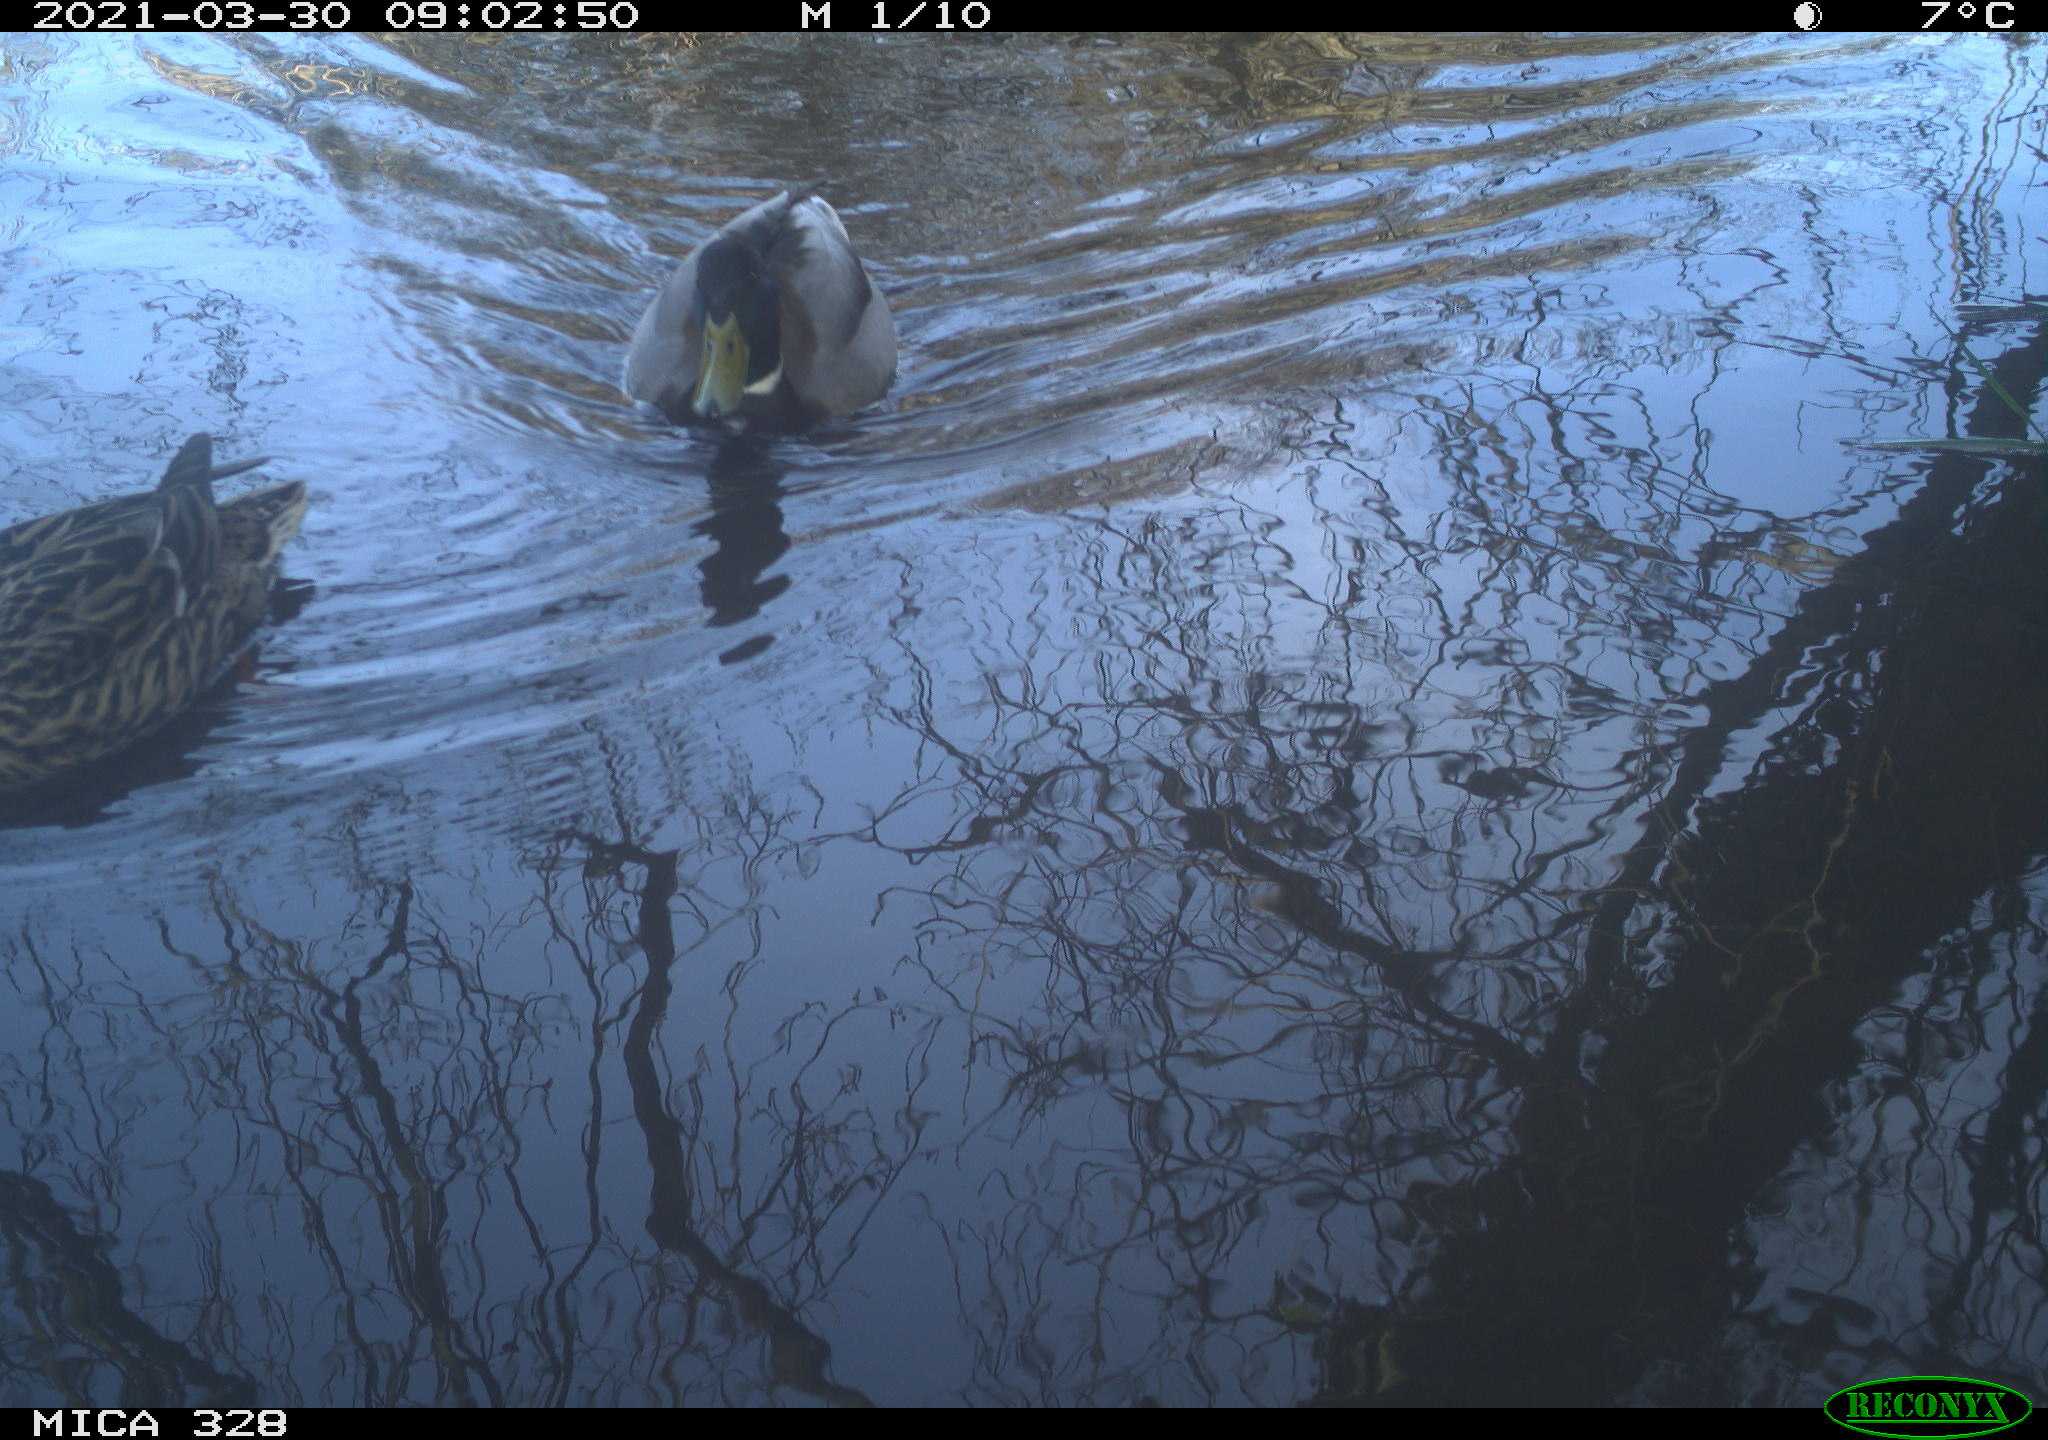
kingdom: Animalia
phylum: Chordata
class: Aves
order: Anseriformes
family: Anatidae
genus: Anas
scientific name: Anas platyrhynchos
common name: Mallard
